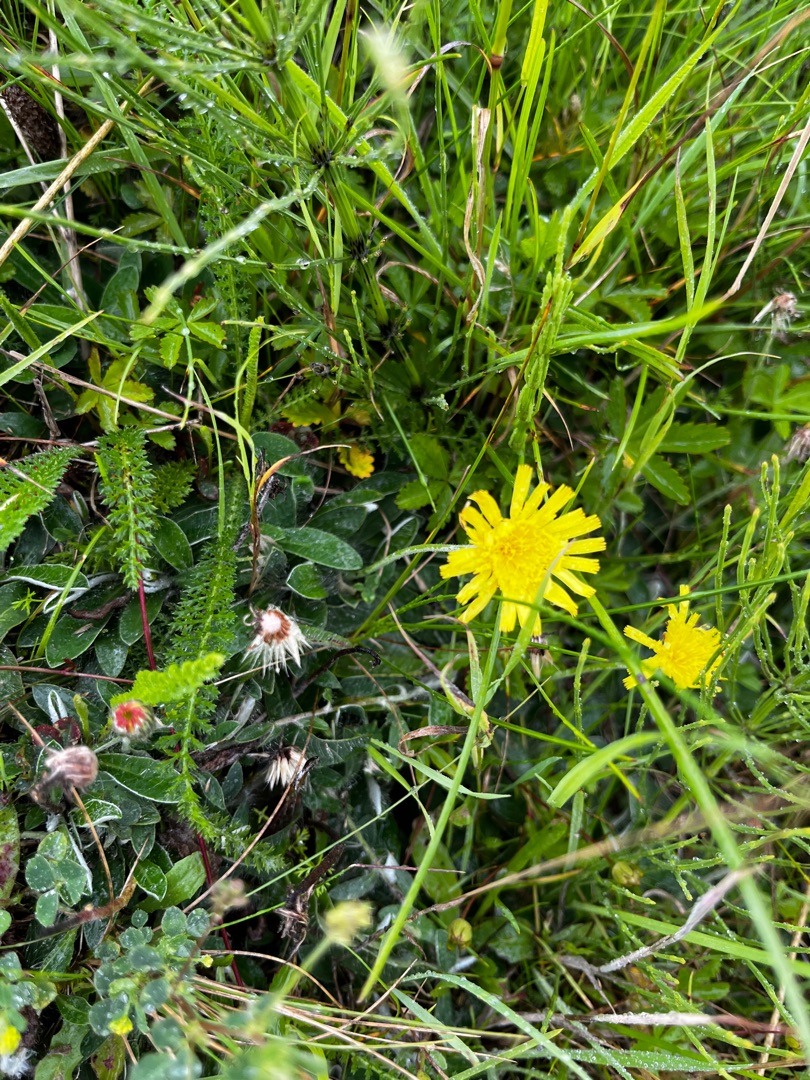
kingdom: Plantae
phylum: Tracheophyta
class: Magnoliopsida
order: Asterales
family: Asteraceae
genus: Pilosella
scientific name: Pilosella officinarum
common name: Håret høgeurt
